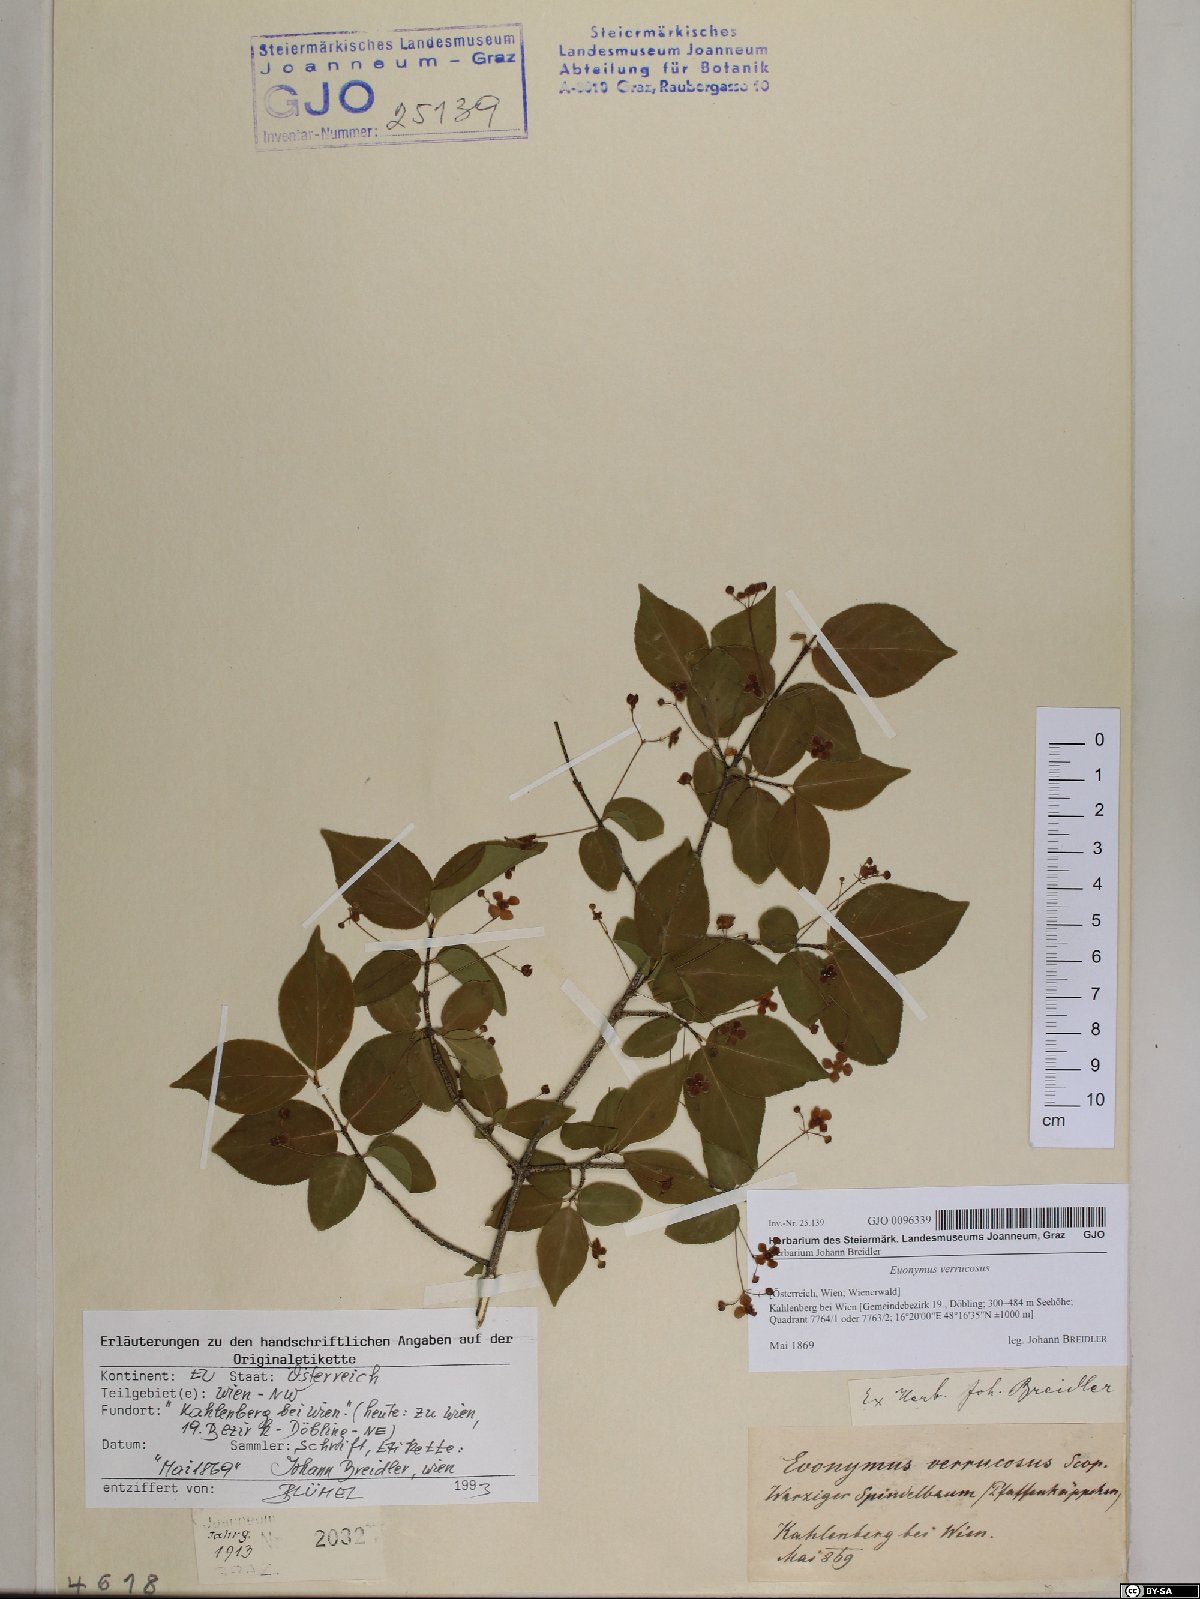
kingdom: Plantae
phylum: Tracheophyta
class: Magnoliopsida
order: Celastrales
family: Celastraceae
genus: Euonymus
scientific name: Euonymus verrucosus
